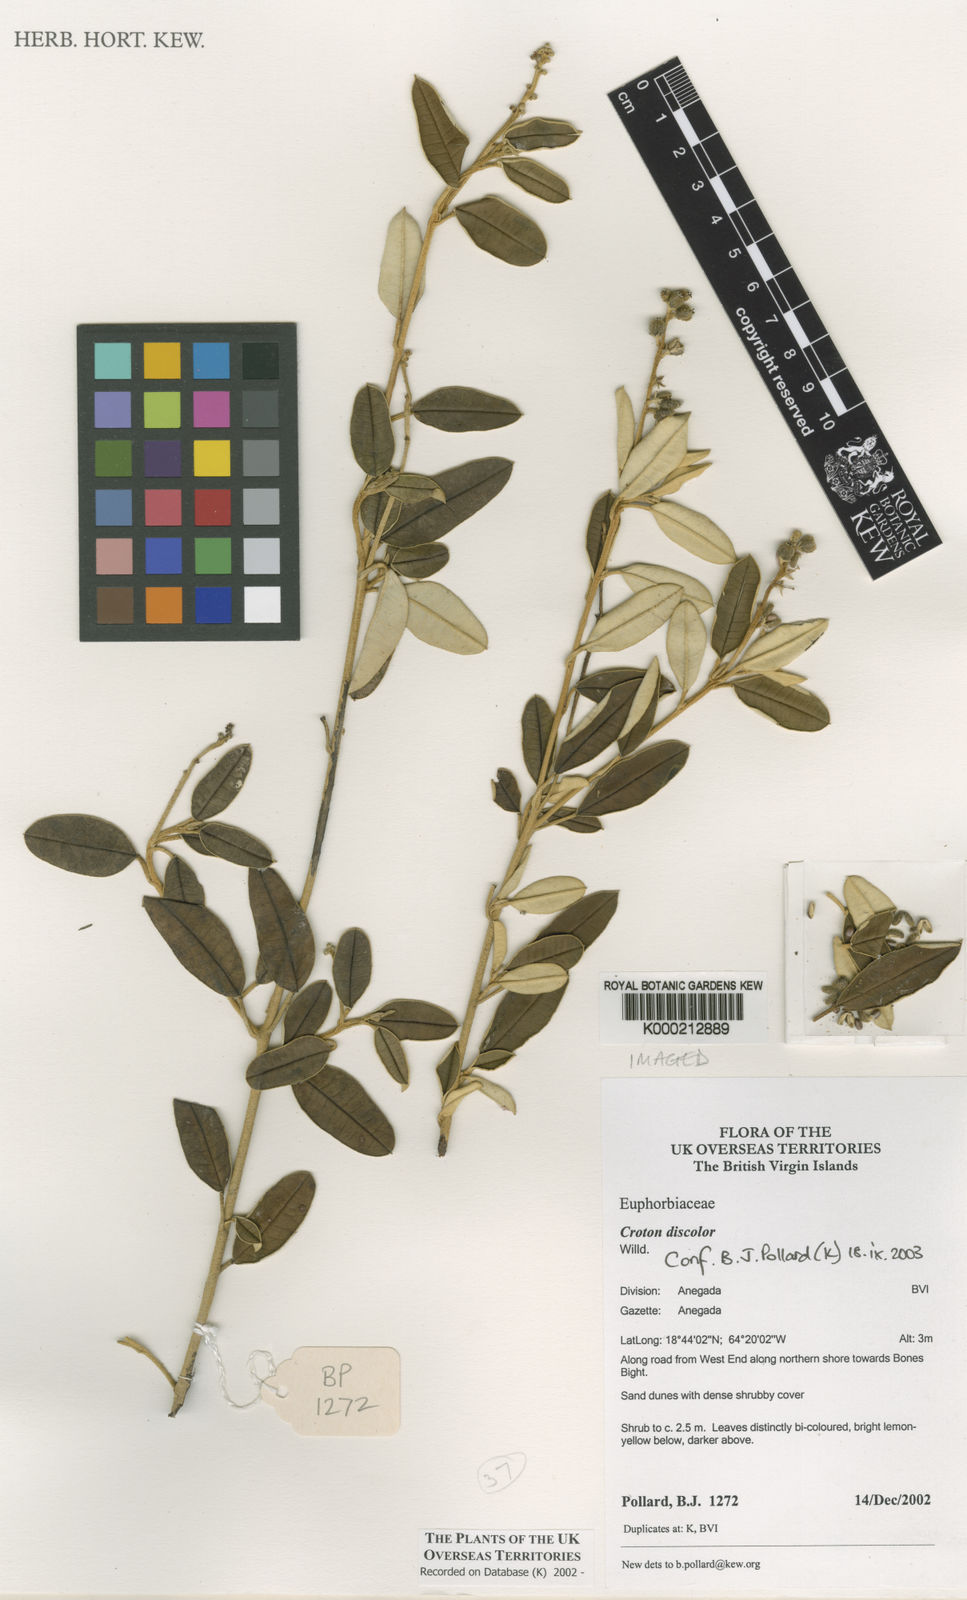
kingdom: Plantae
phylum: Tracheophyta
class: Magnoliopsida
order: Malpighiales
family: Euphorbiaceae
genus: Croton
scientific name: Croton discolor
